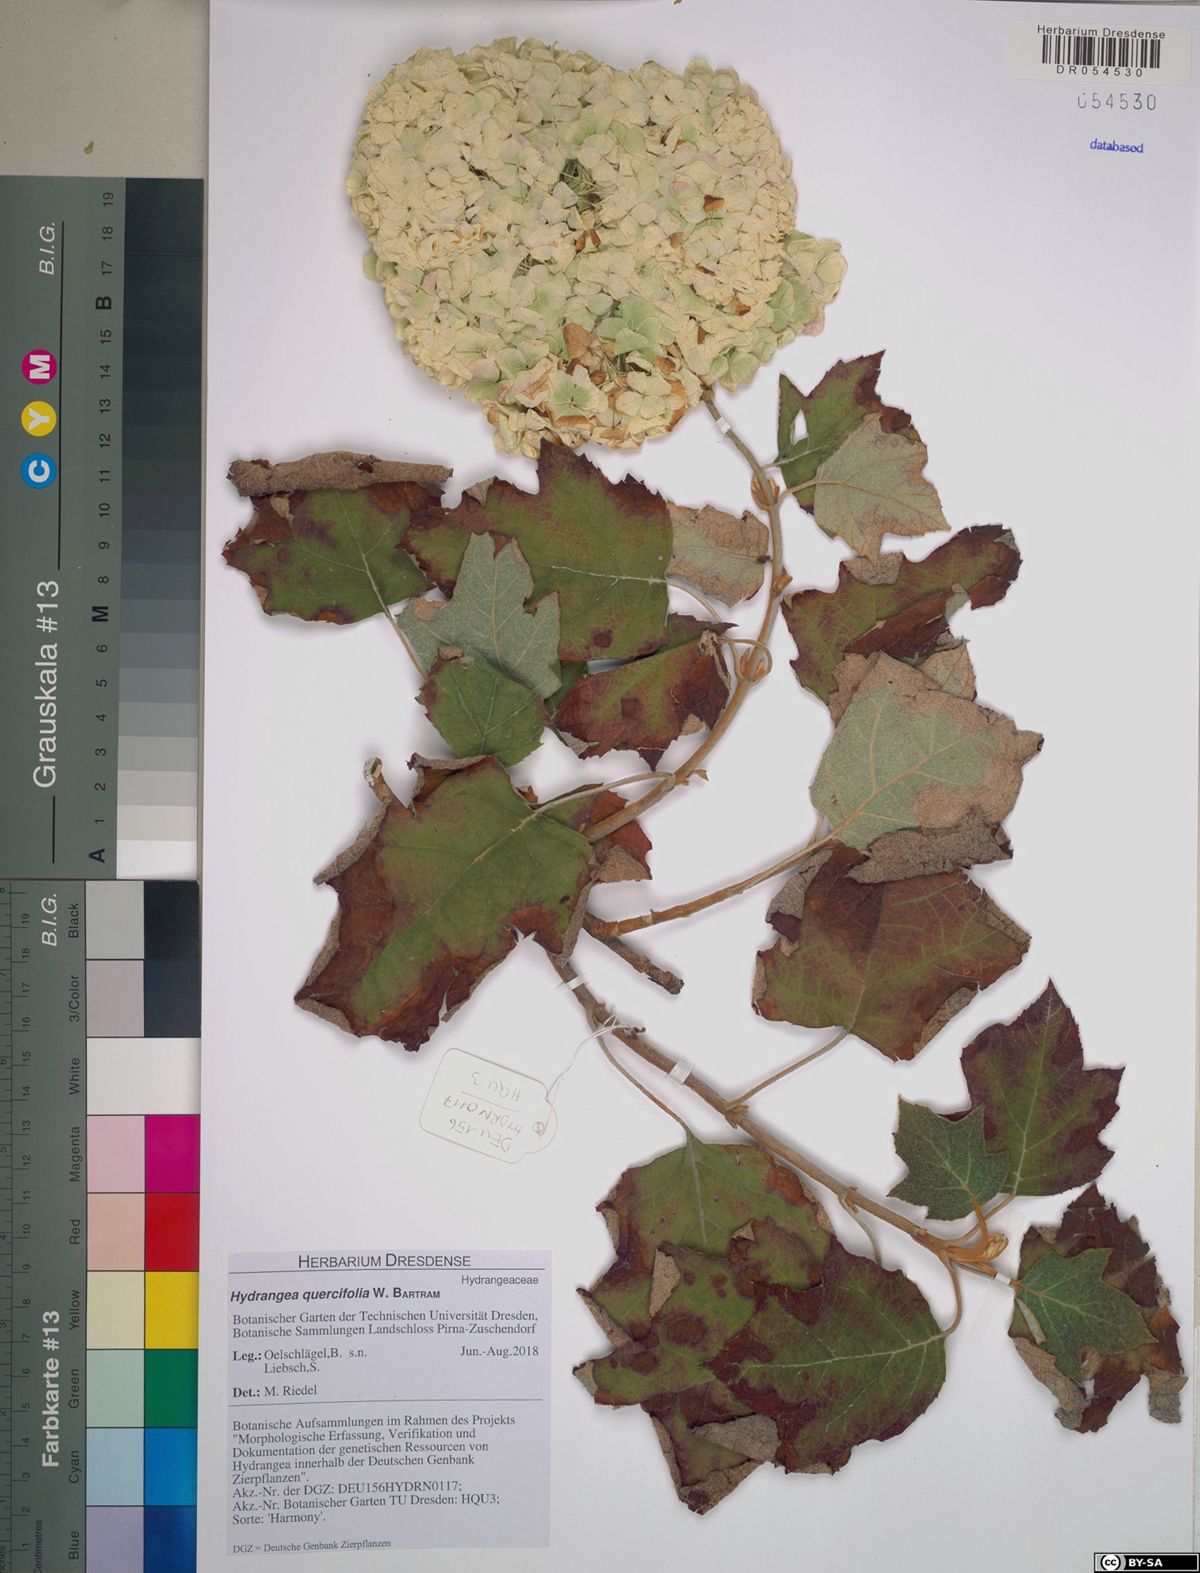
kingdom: Plantae
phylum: Tracheophyta
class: Magnoliopsida
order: Cornales
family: Hydrangeaceae
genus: Hydrangea
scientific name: Hydrangea quercifolia
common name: Oak-leaf hydrangea
